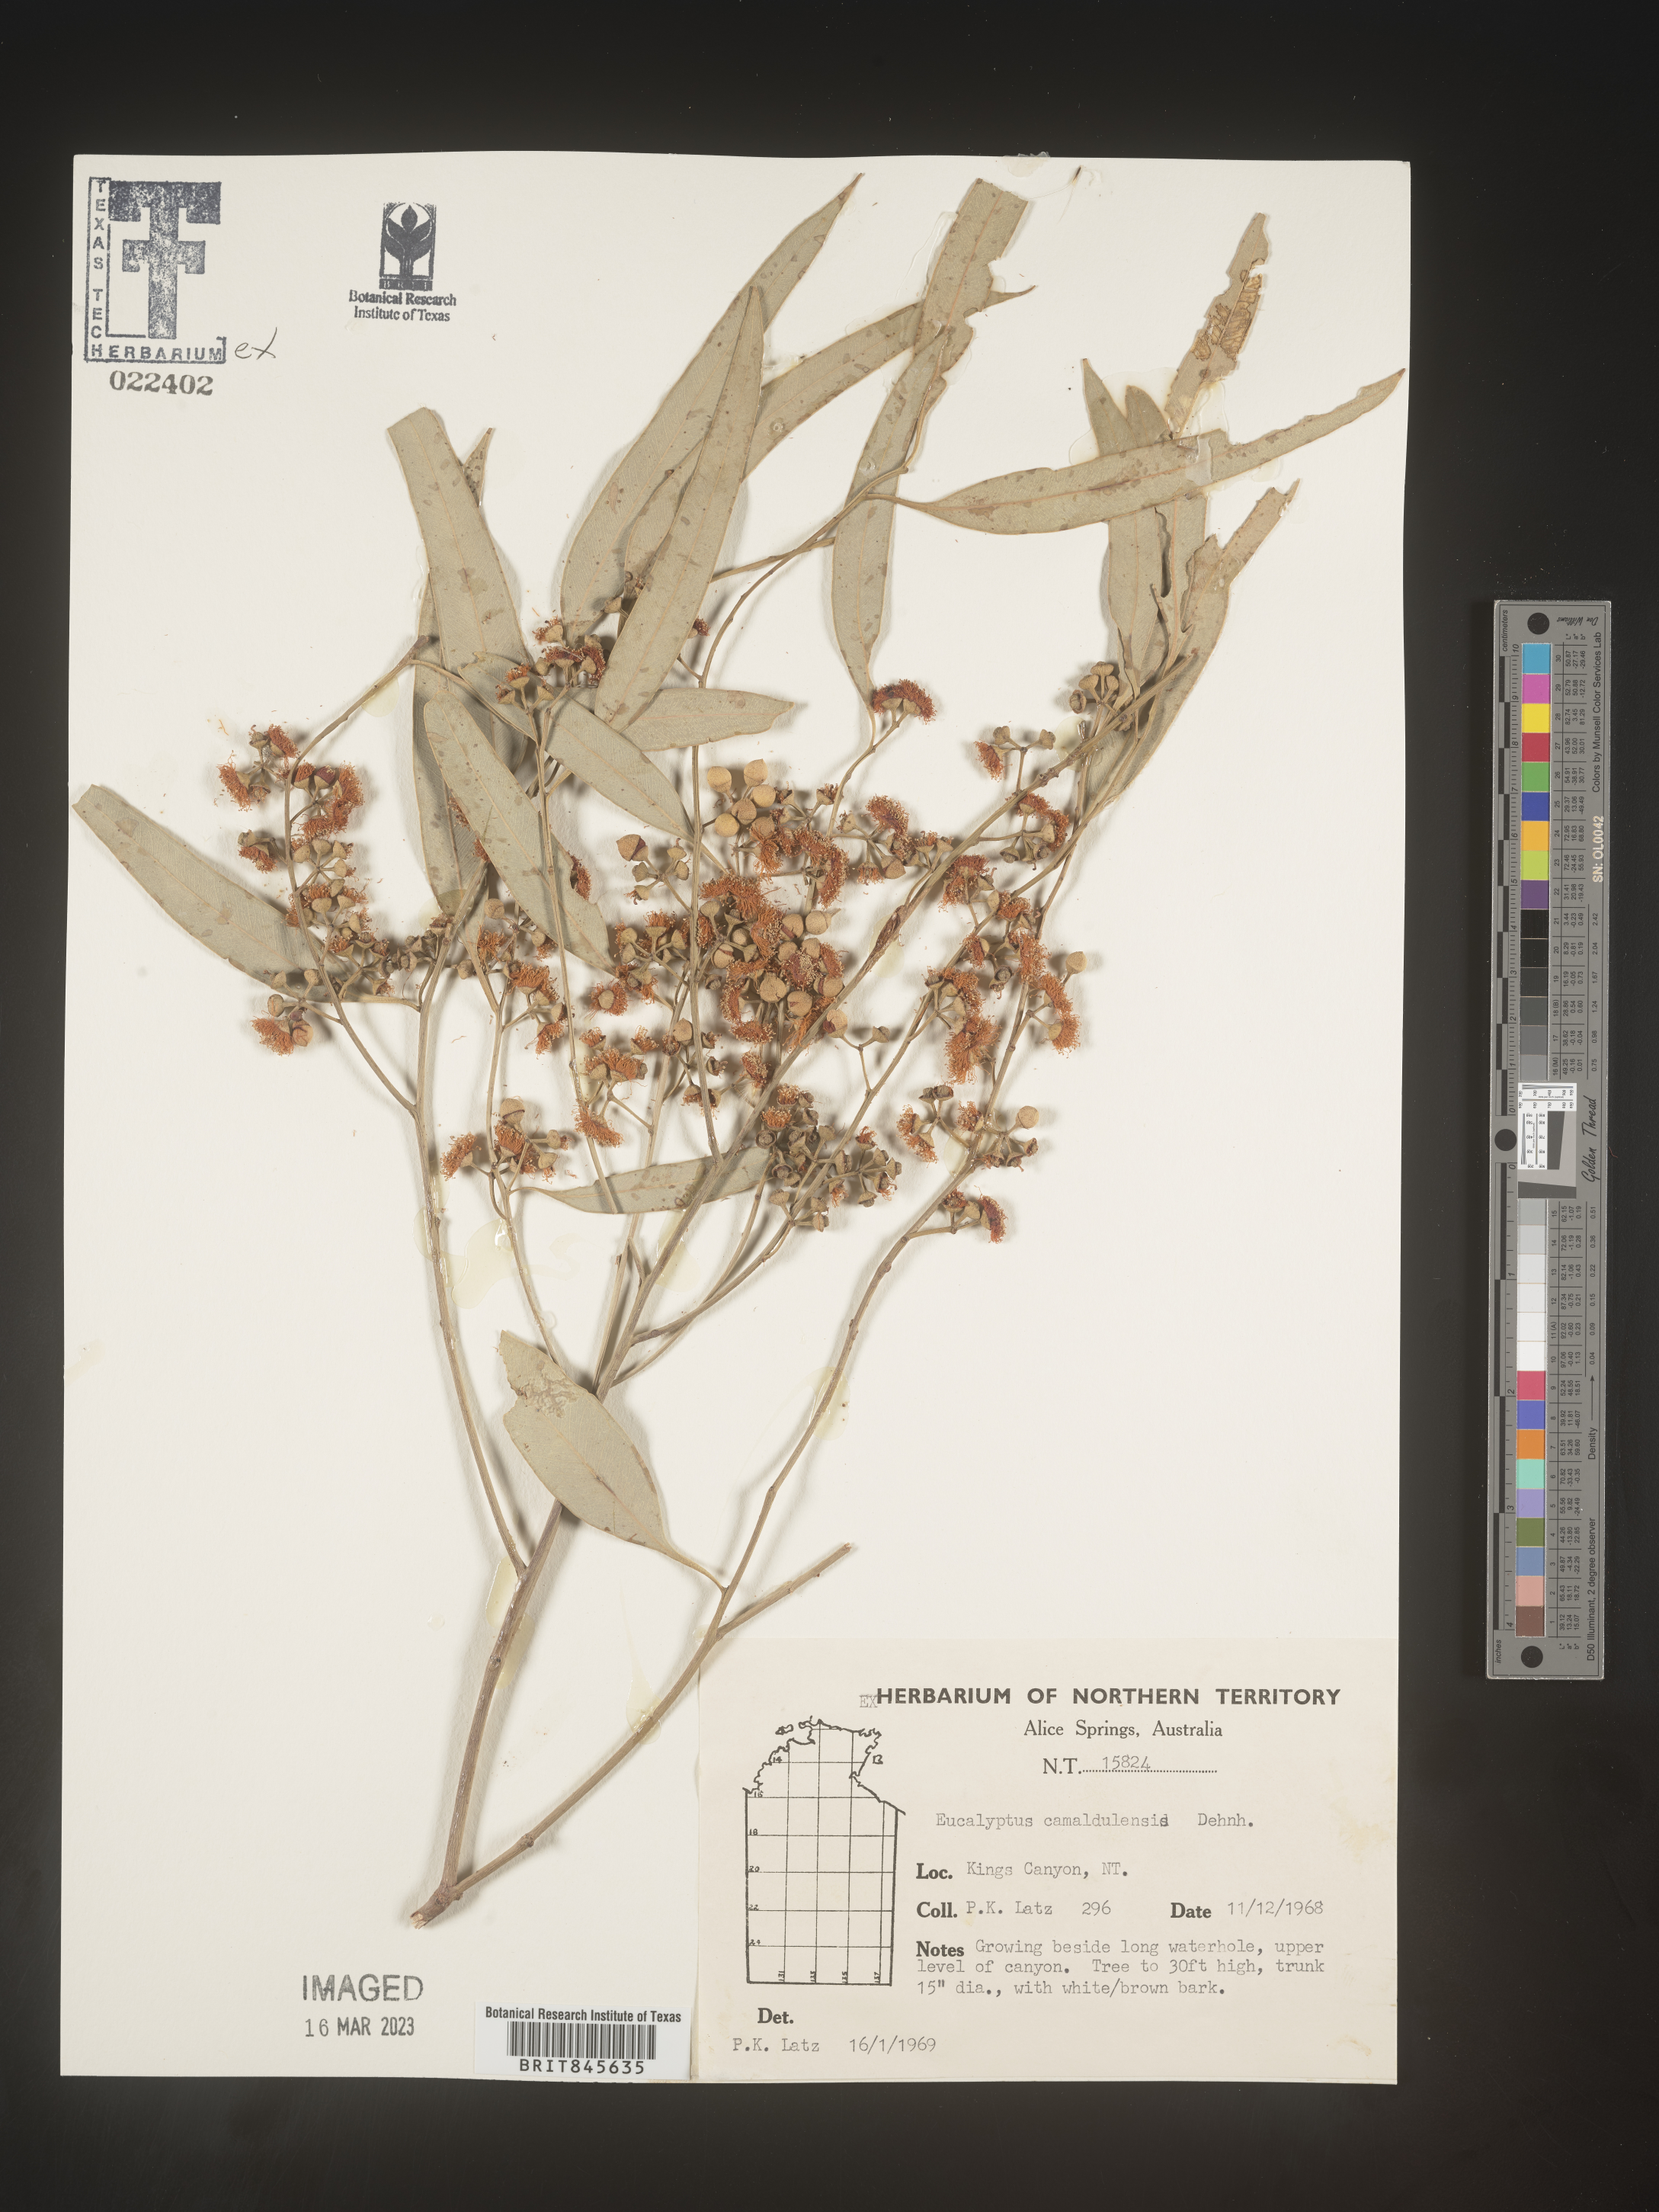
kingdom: Plantae
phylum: Tracheophyta
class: Magnoliopsida
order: Myrtales
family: Myrtaceae
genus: Eucalyptus
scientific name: Eucalyptus
